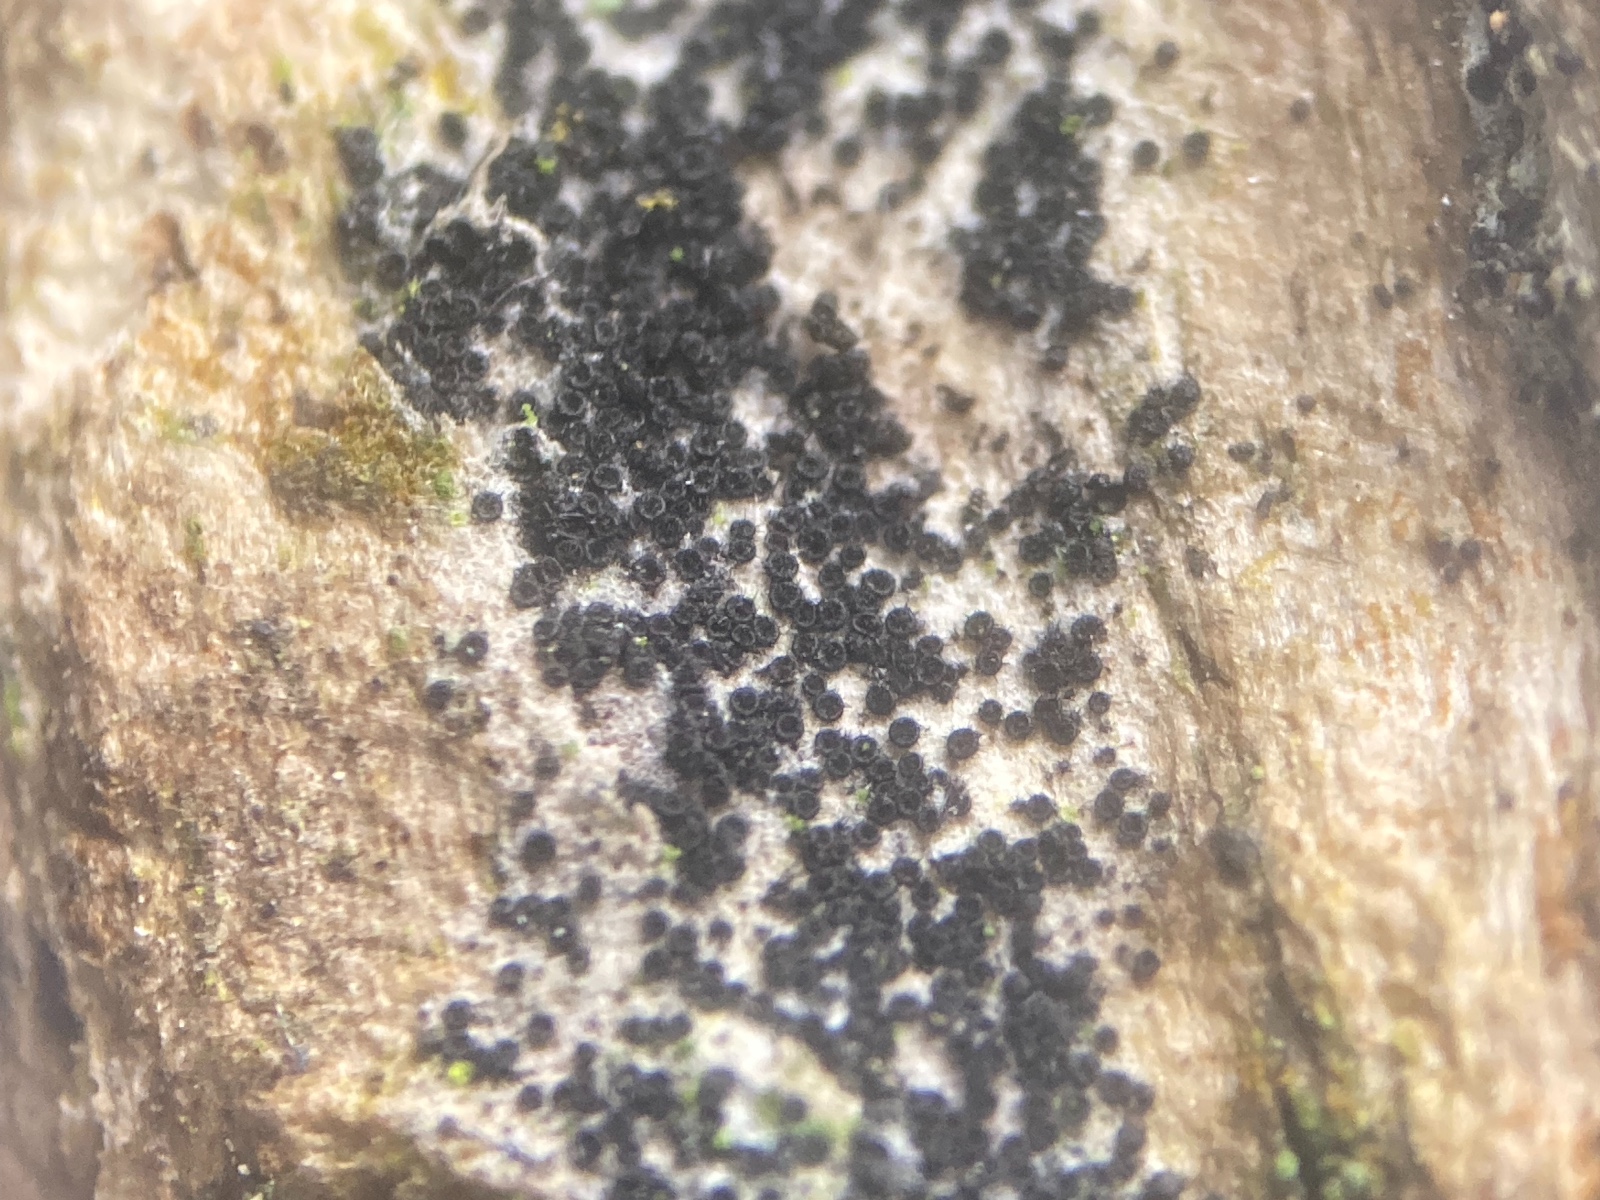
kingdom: Fungi
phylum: Ascomycota
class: Sordariomycetes
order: Hypocreales
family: Niessliaceae
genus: Niesslia
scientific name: Niesslia
